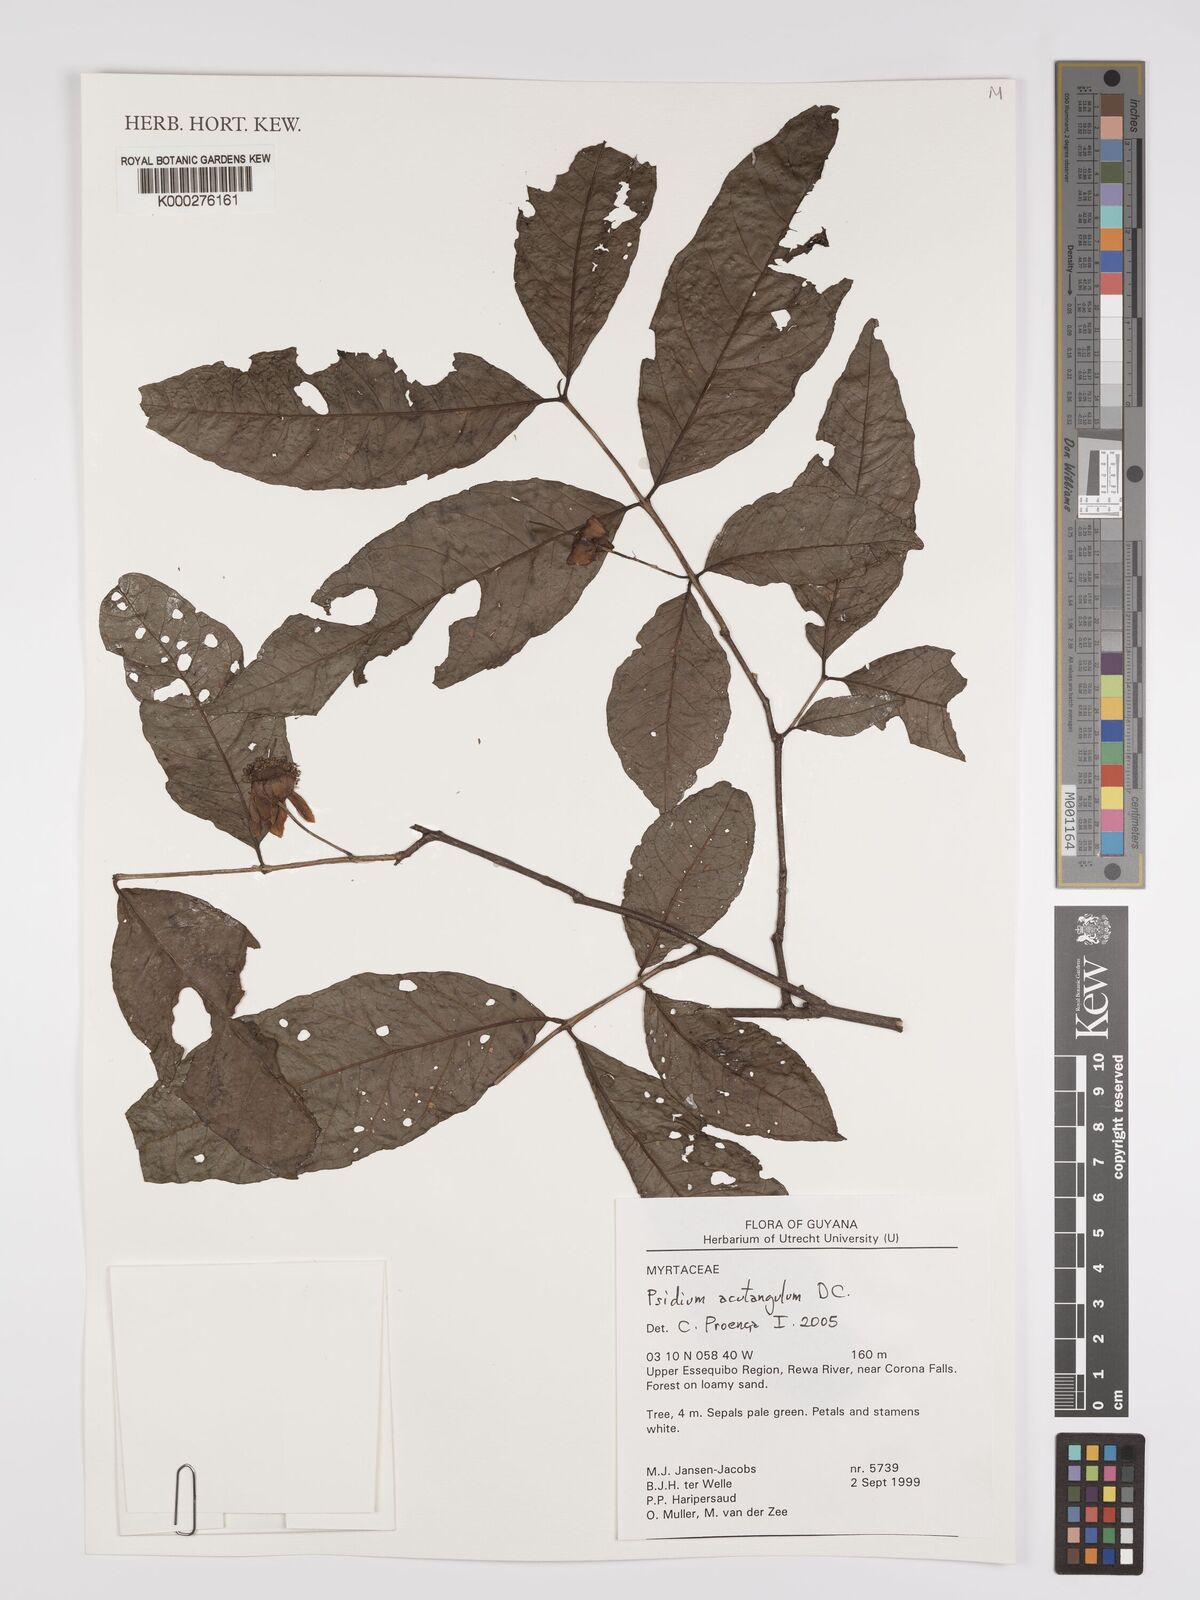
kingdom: Plantae
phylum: Tracheophyta
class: Magnoliopsida
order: Myrtales
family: Myrtaceae
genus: Psidium
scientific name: Psidium acutangulum
